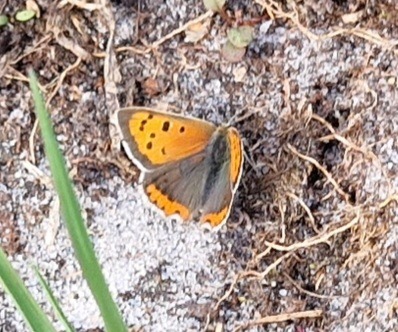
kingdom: Animalia
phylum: Arthropoda
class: Insecta
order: Lepidoptera
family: Lycaenidae
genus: Lycaena
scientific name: Lycaena phlaeas
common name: Lille ildfugl
